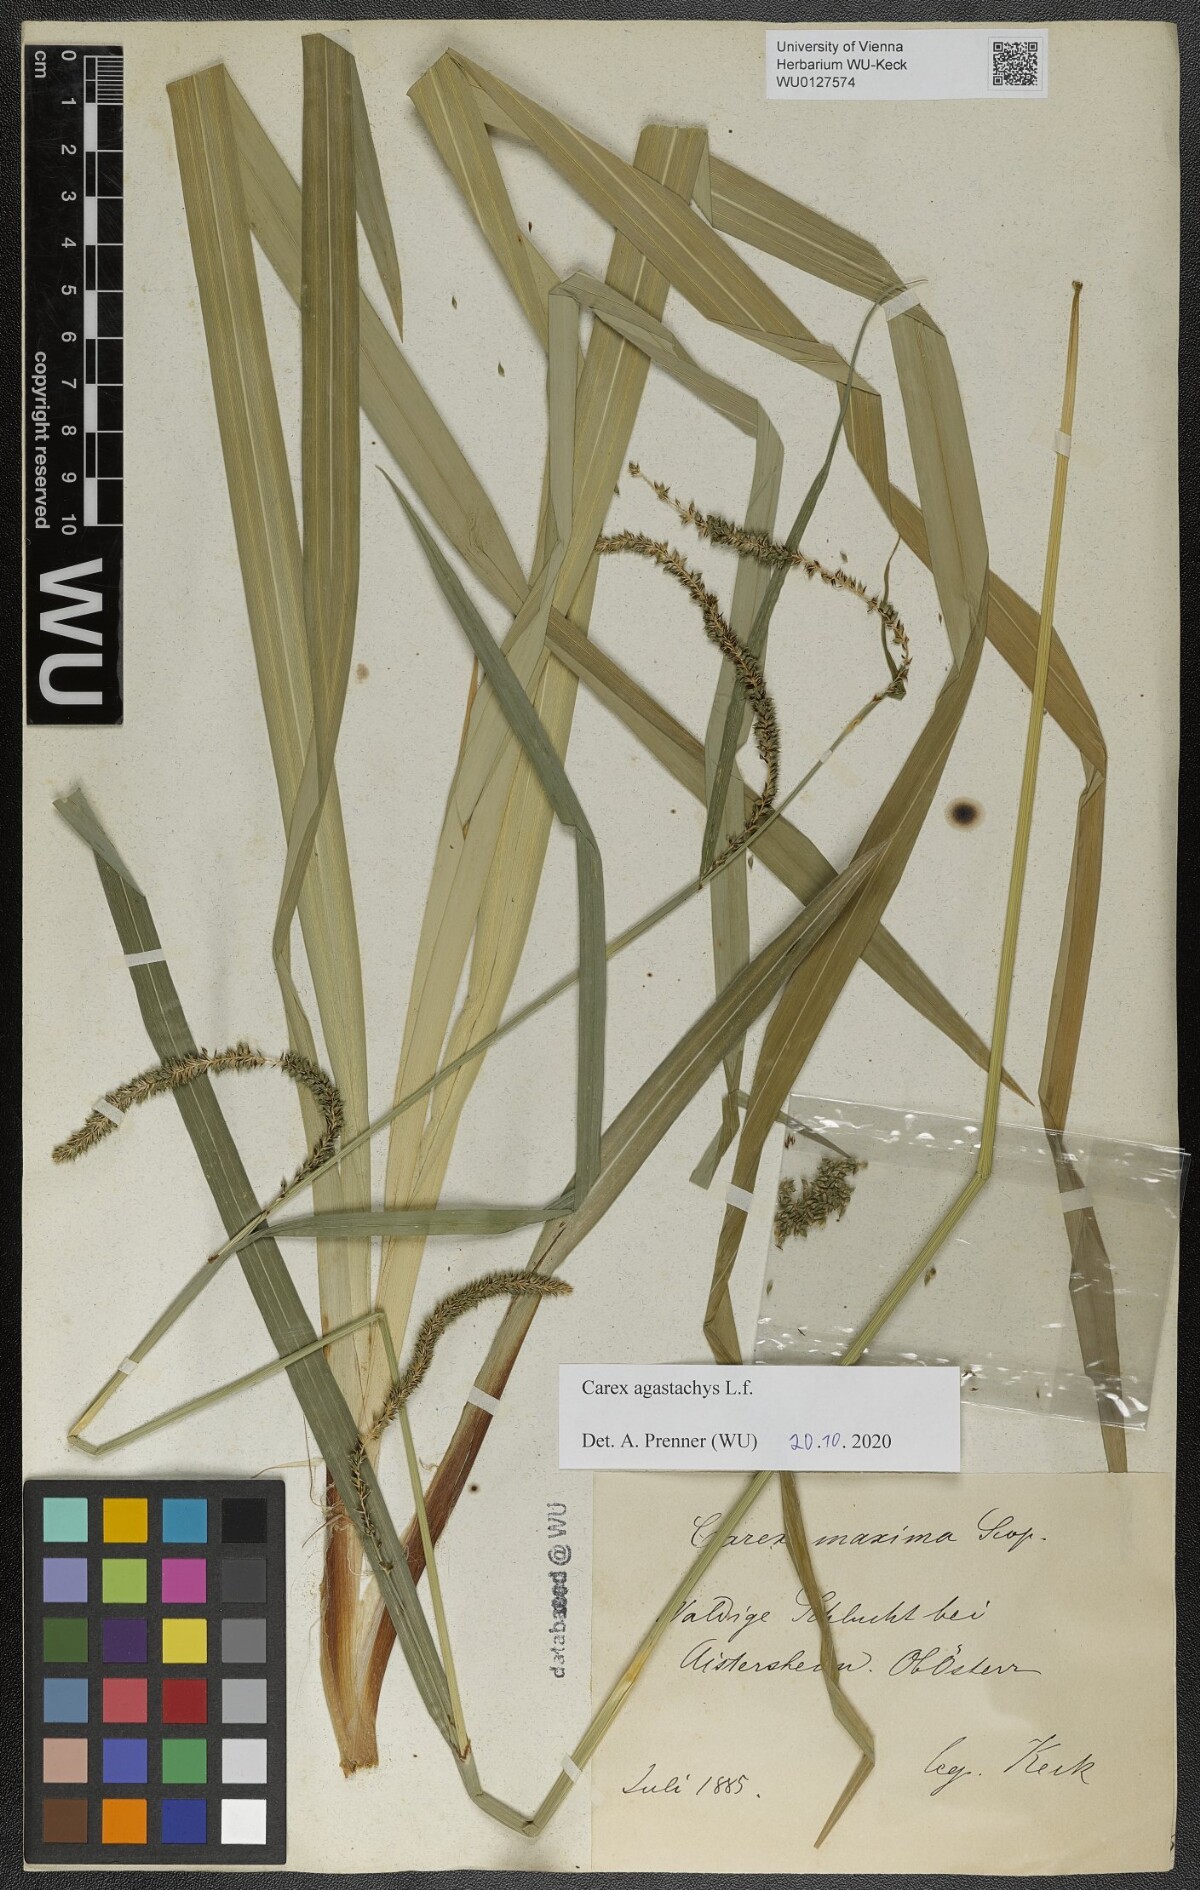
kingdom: Plantae
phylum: Tracheophyta
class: Liliopsida
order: Poales
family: Cyperaceae
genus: Carex
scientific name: Carex agastachys
